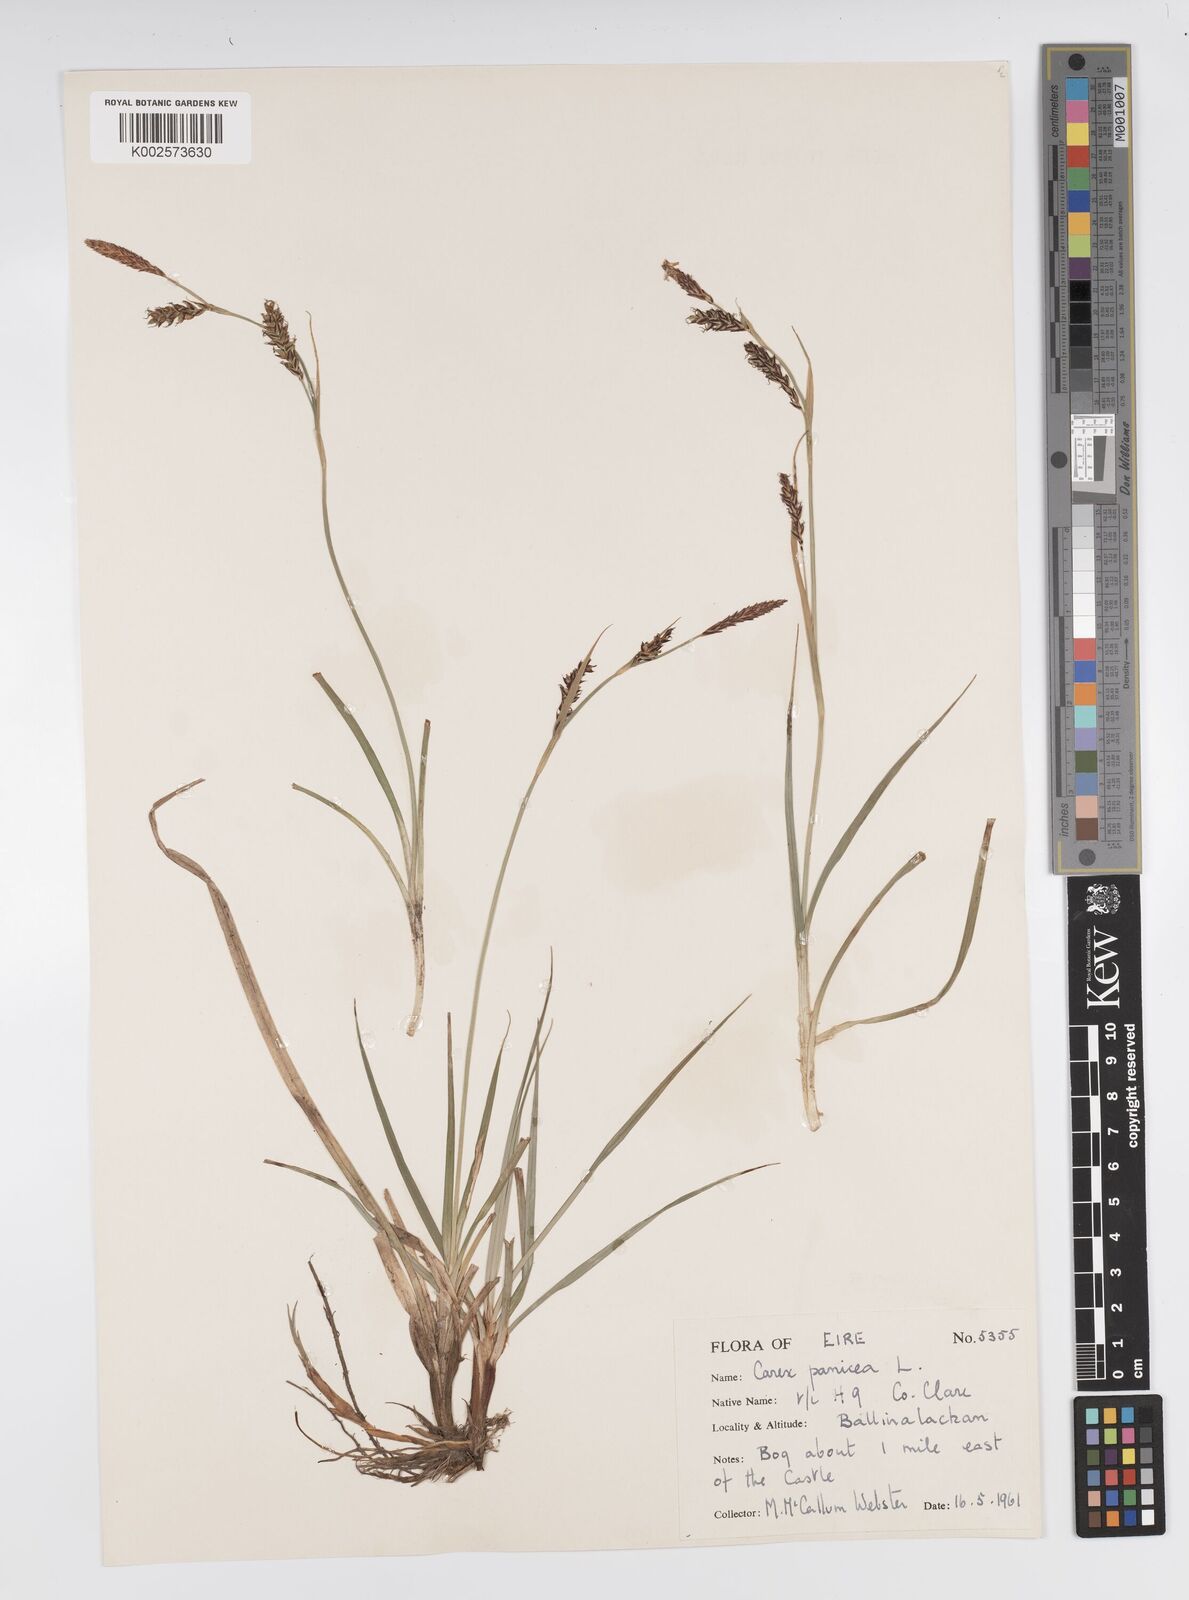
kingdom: Plantae
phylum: Tracheophyta
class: Liliopsida
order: Poales
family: Cyperaceae
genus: Carex
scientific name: Carex panicea
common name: Carnation sedge
